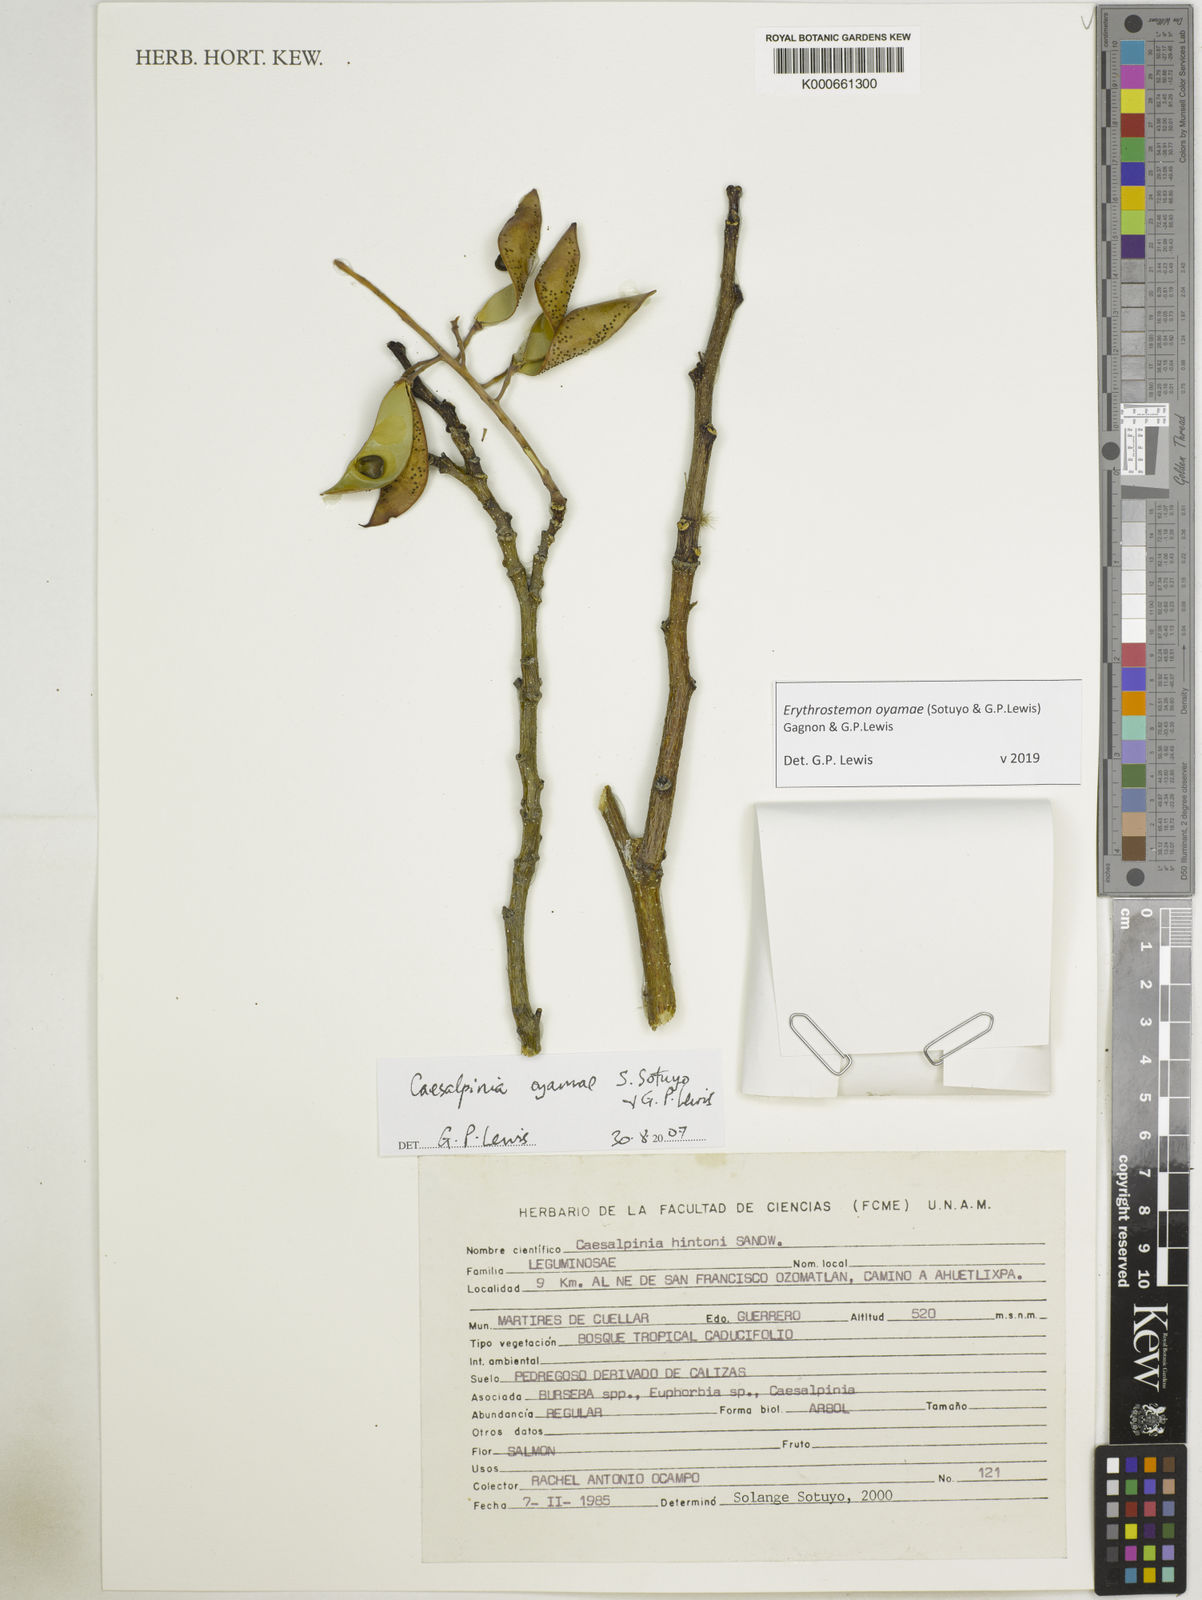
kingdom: Plantae
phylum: Tracheophyta
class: Magnoliopsida
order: Fabales
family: Fabaceae
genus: Erythrostemon
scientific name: Erythrostemon oyamae
